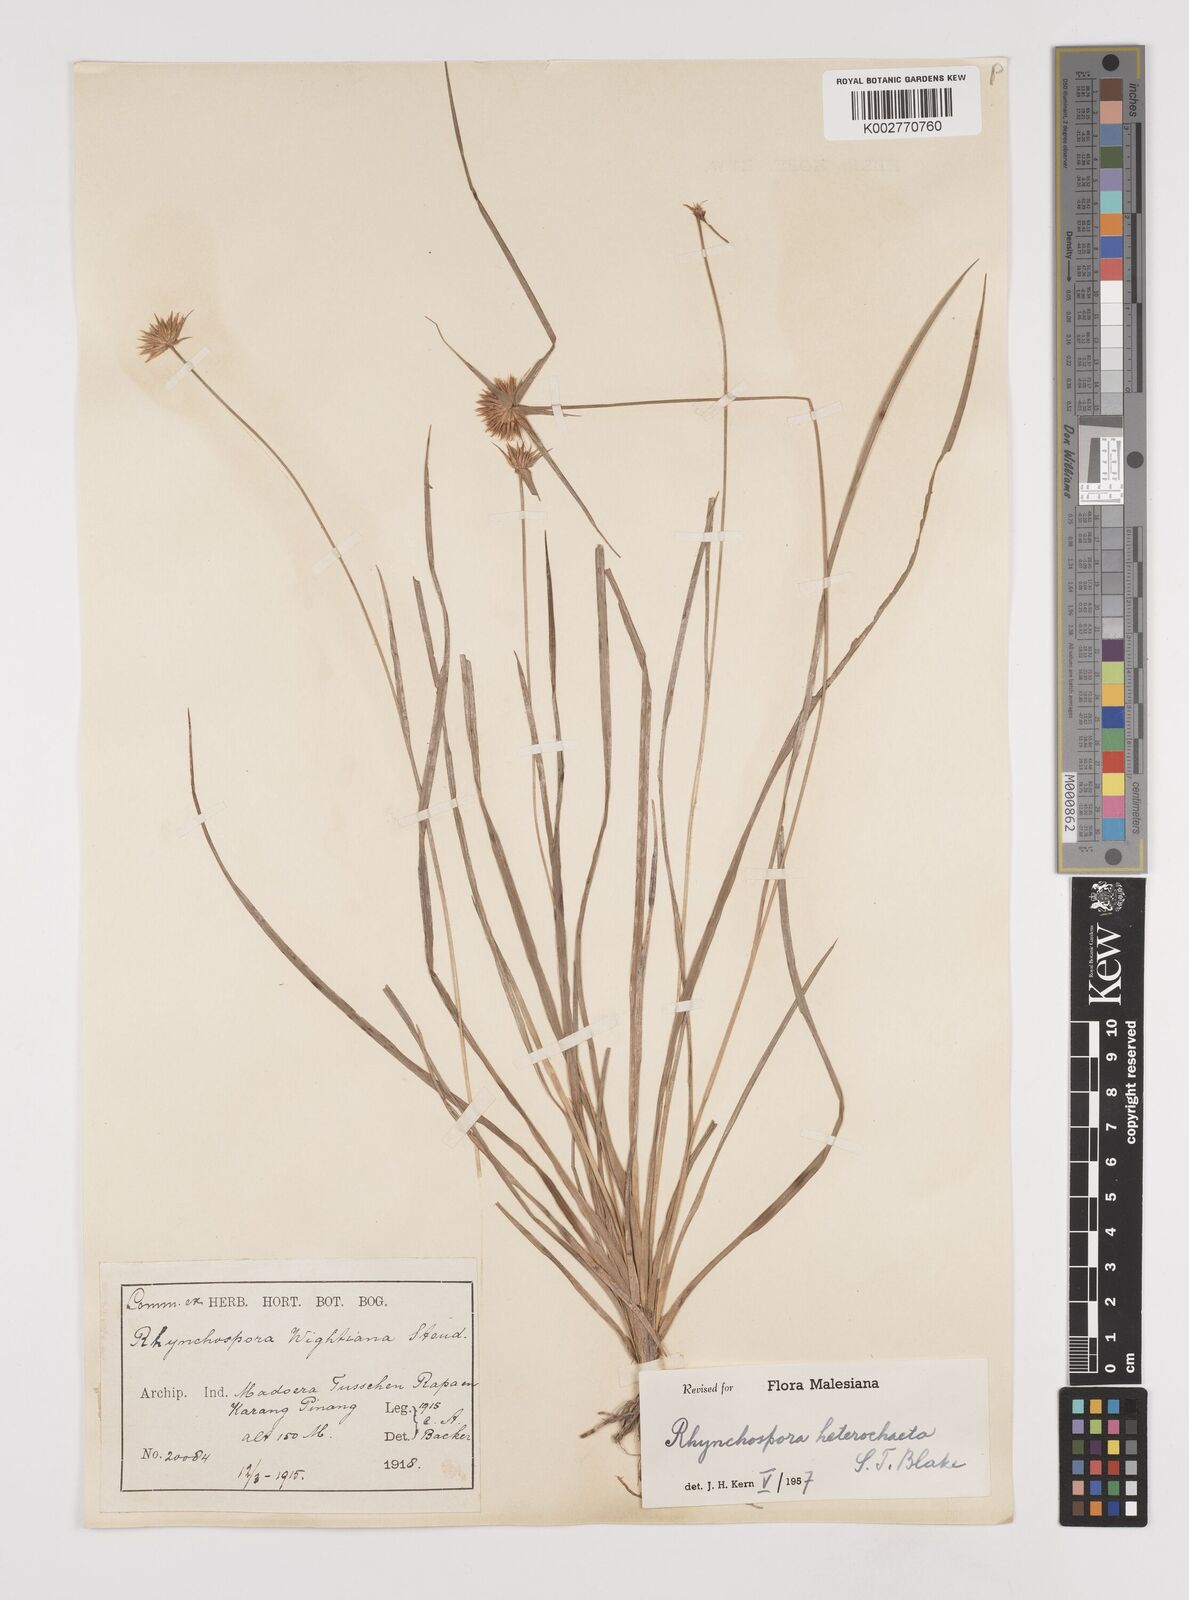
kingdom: Plantae
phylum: Tracheophyta
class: Liliopsida
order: Poales
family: Cyperaceae
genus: Rhynchospora
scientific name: Rhynchospora wightiana
